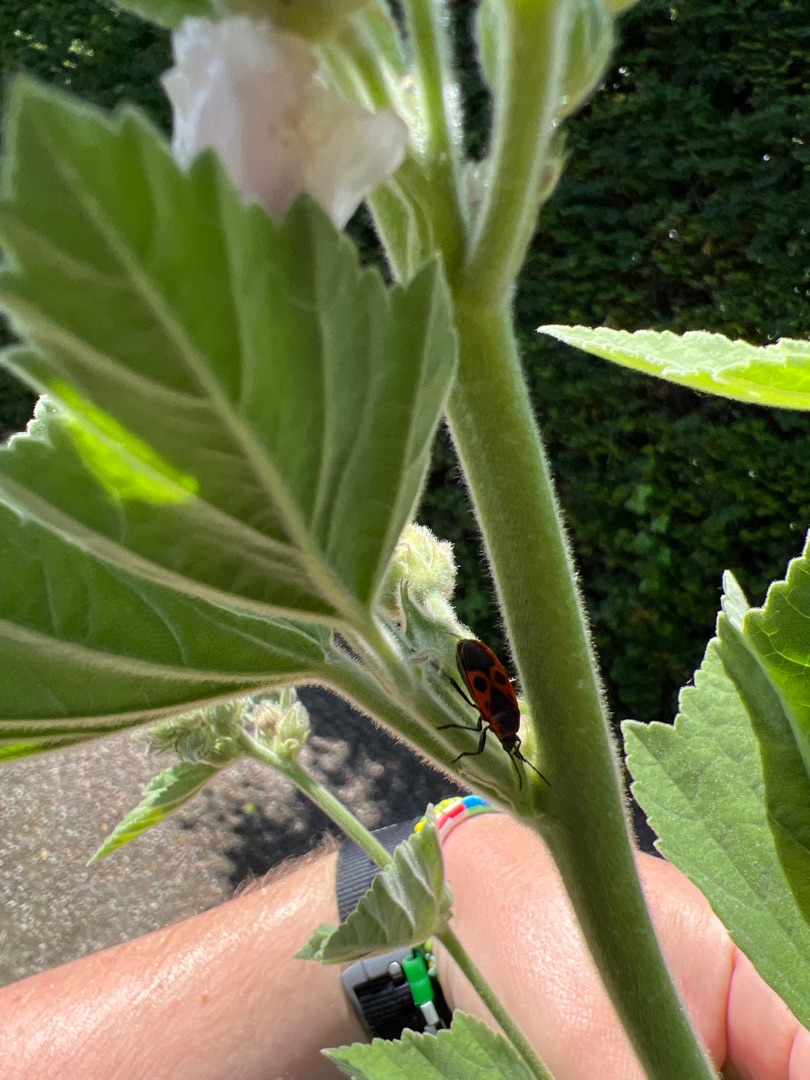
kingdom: Animalia
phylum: Arthropoda
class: Insecta
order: Hemiptera
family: Pyrrhocoridae
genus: Pyrrhocoris
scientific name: Pyrrhocoris apterus
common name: Ildtæge
